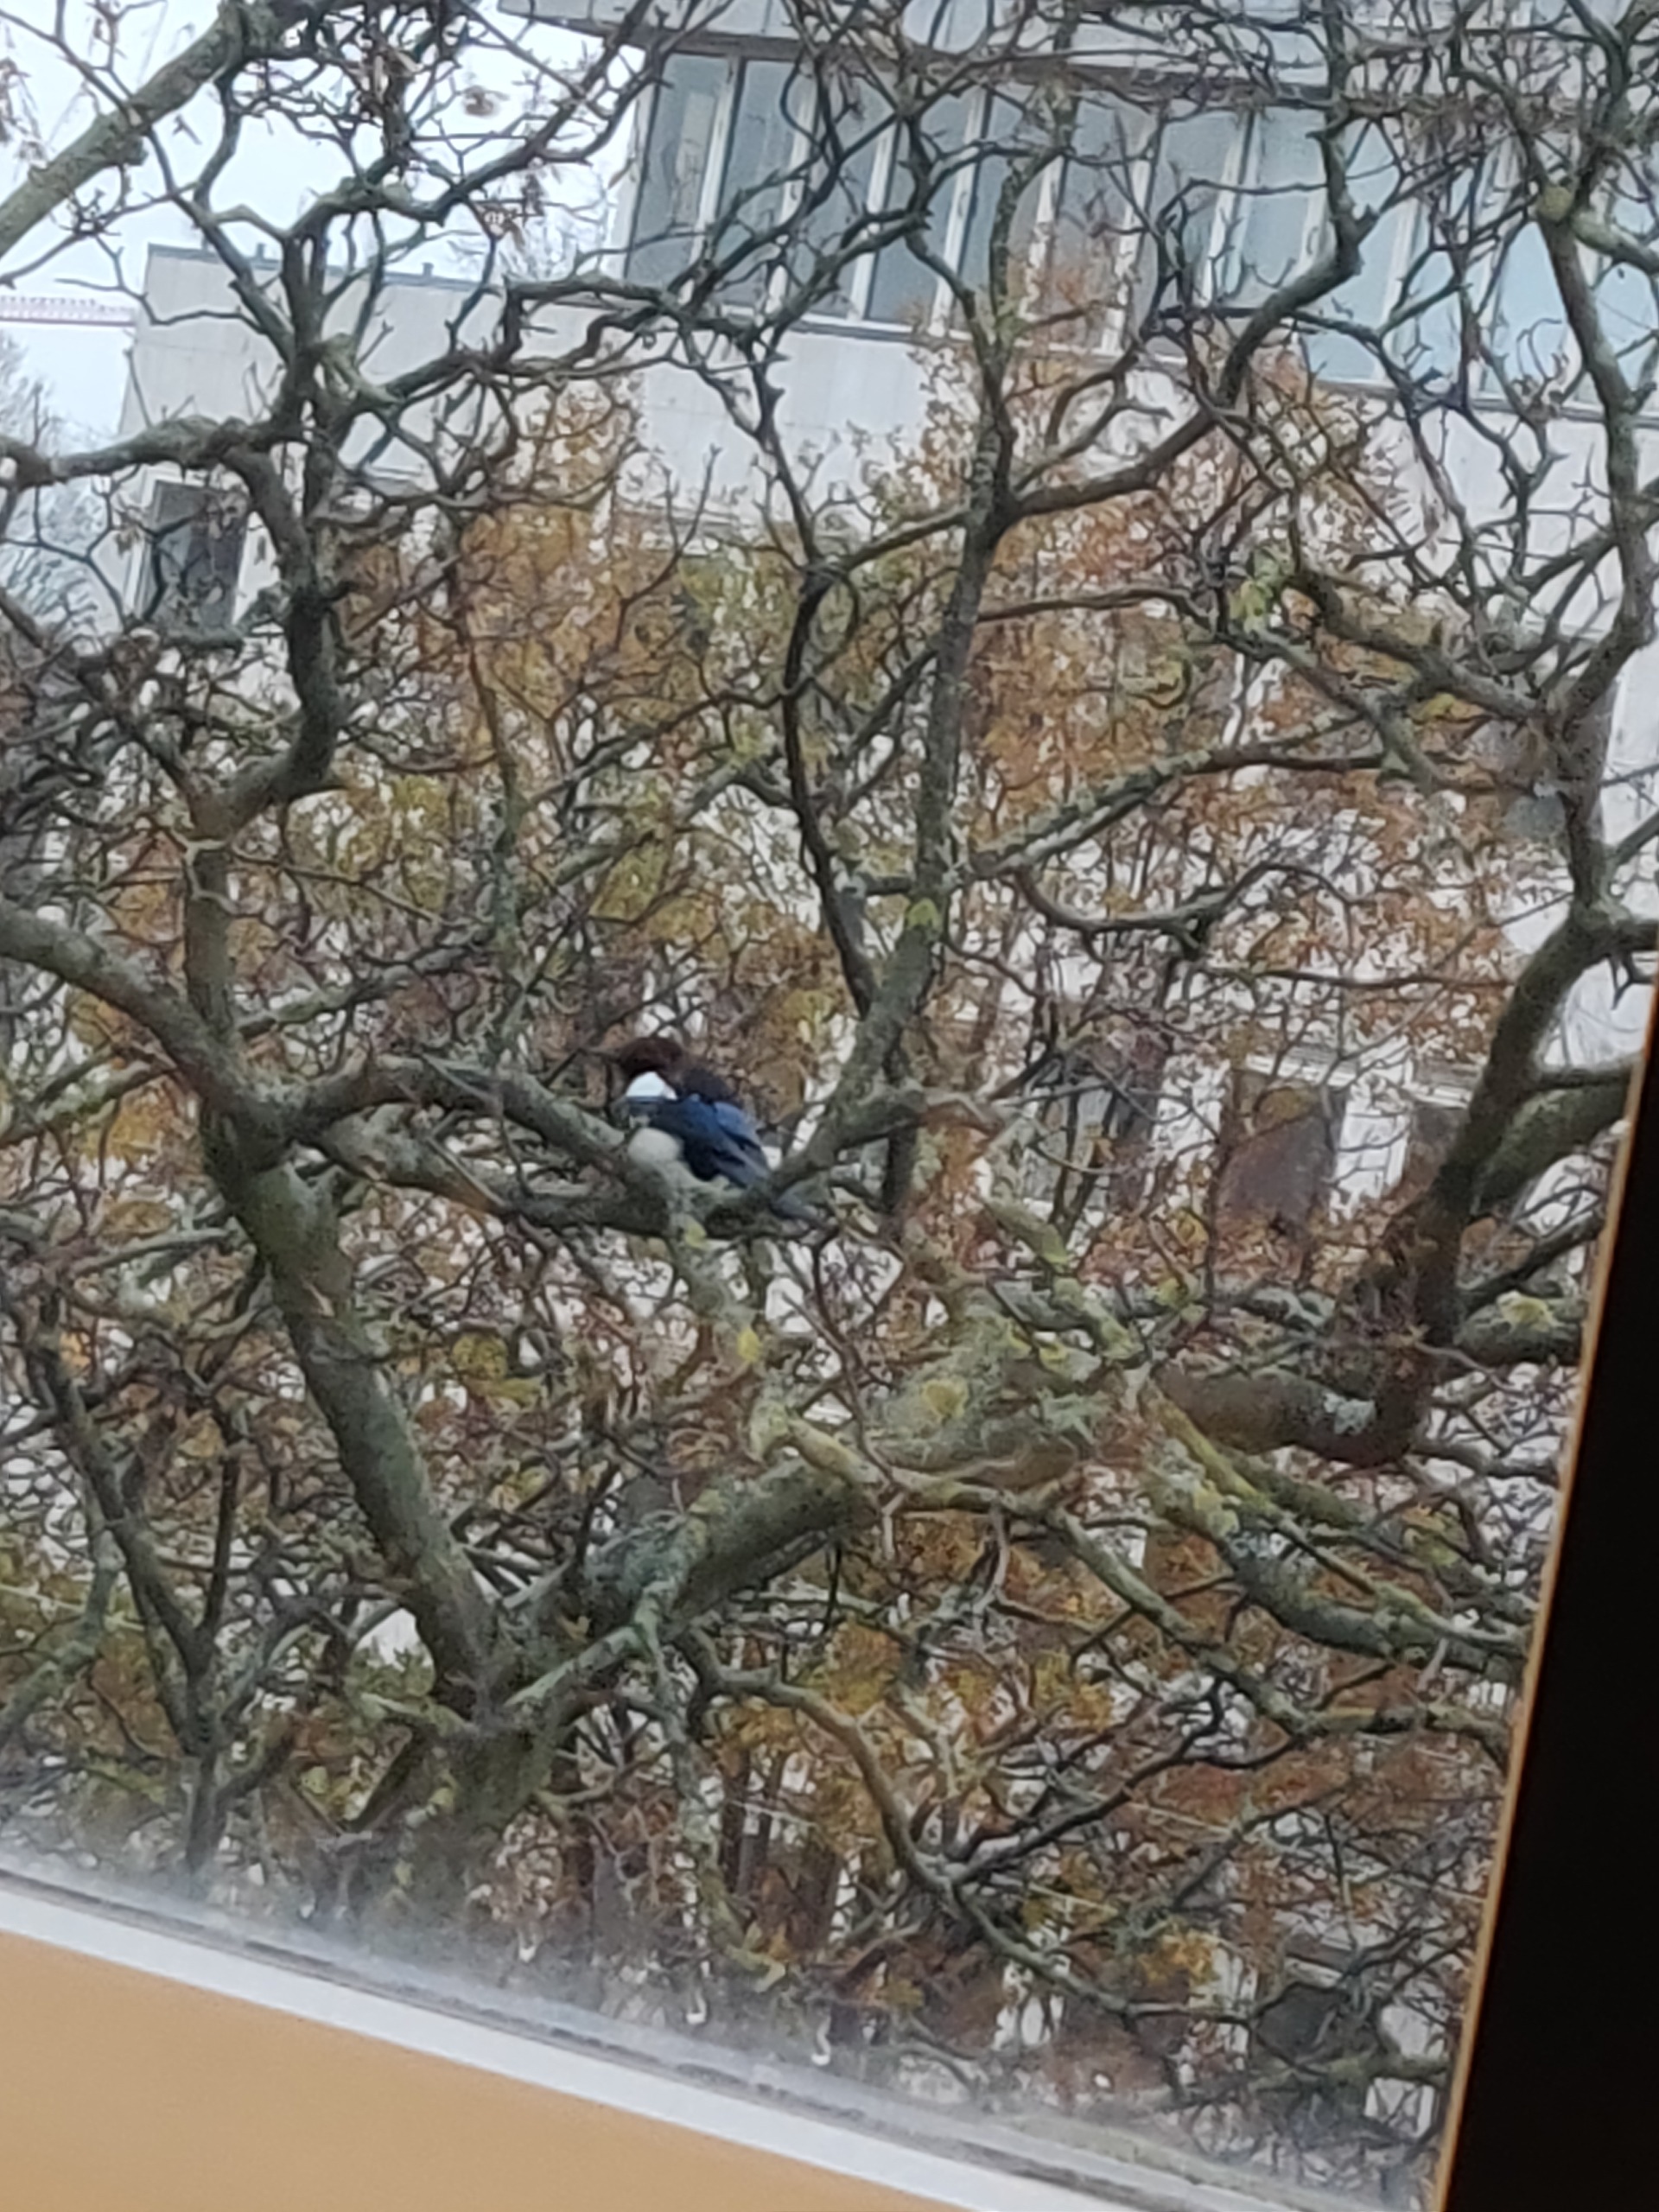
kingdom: Animalia
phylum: Chordata
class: Aves
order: Passeriformes
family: Corvidae
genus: Pica
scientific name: Pica pica
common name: Husskade
